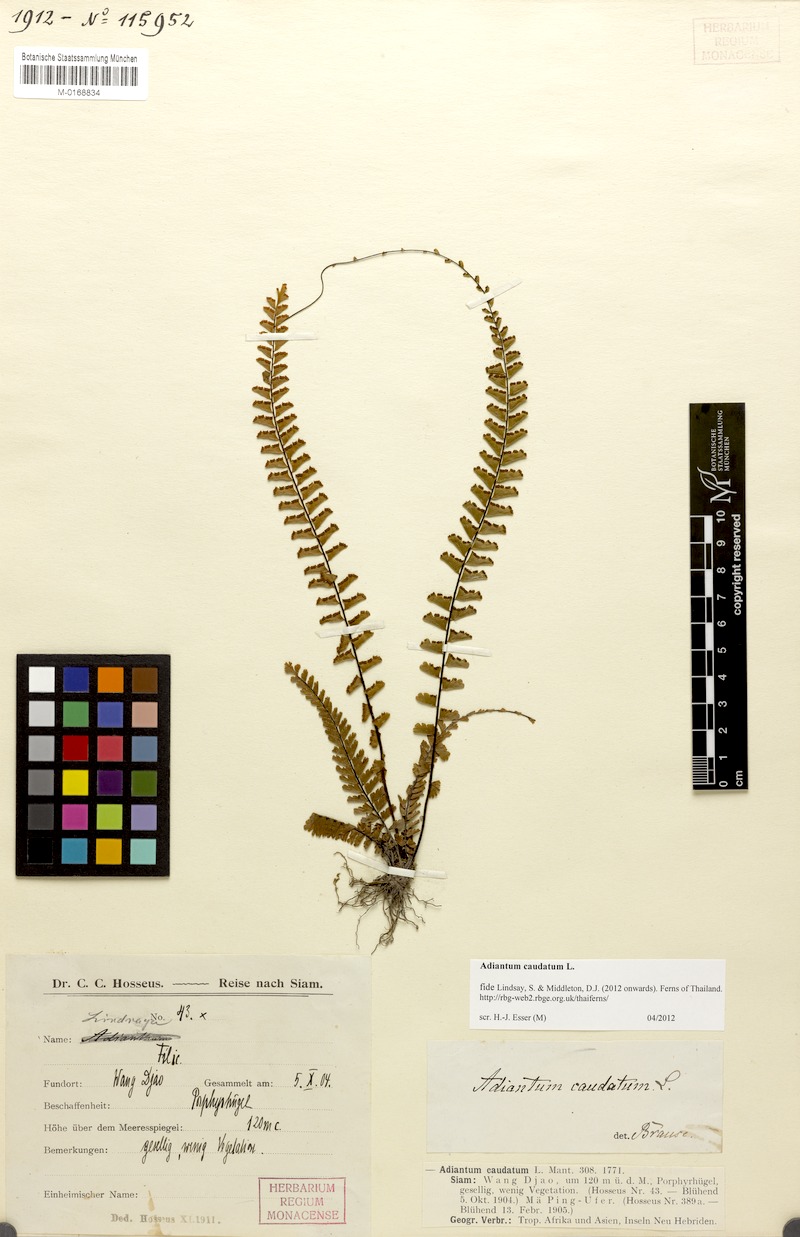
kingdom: Plantae
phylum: Tracheophyta
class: Polypodiopsida
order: Polypodiales
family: Pteridaceae
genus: Adiantum
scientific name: Adiantum caudatum
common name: Tailed maidenhair
